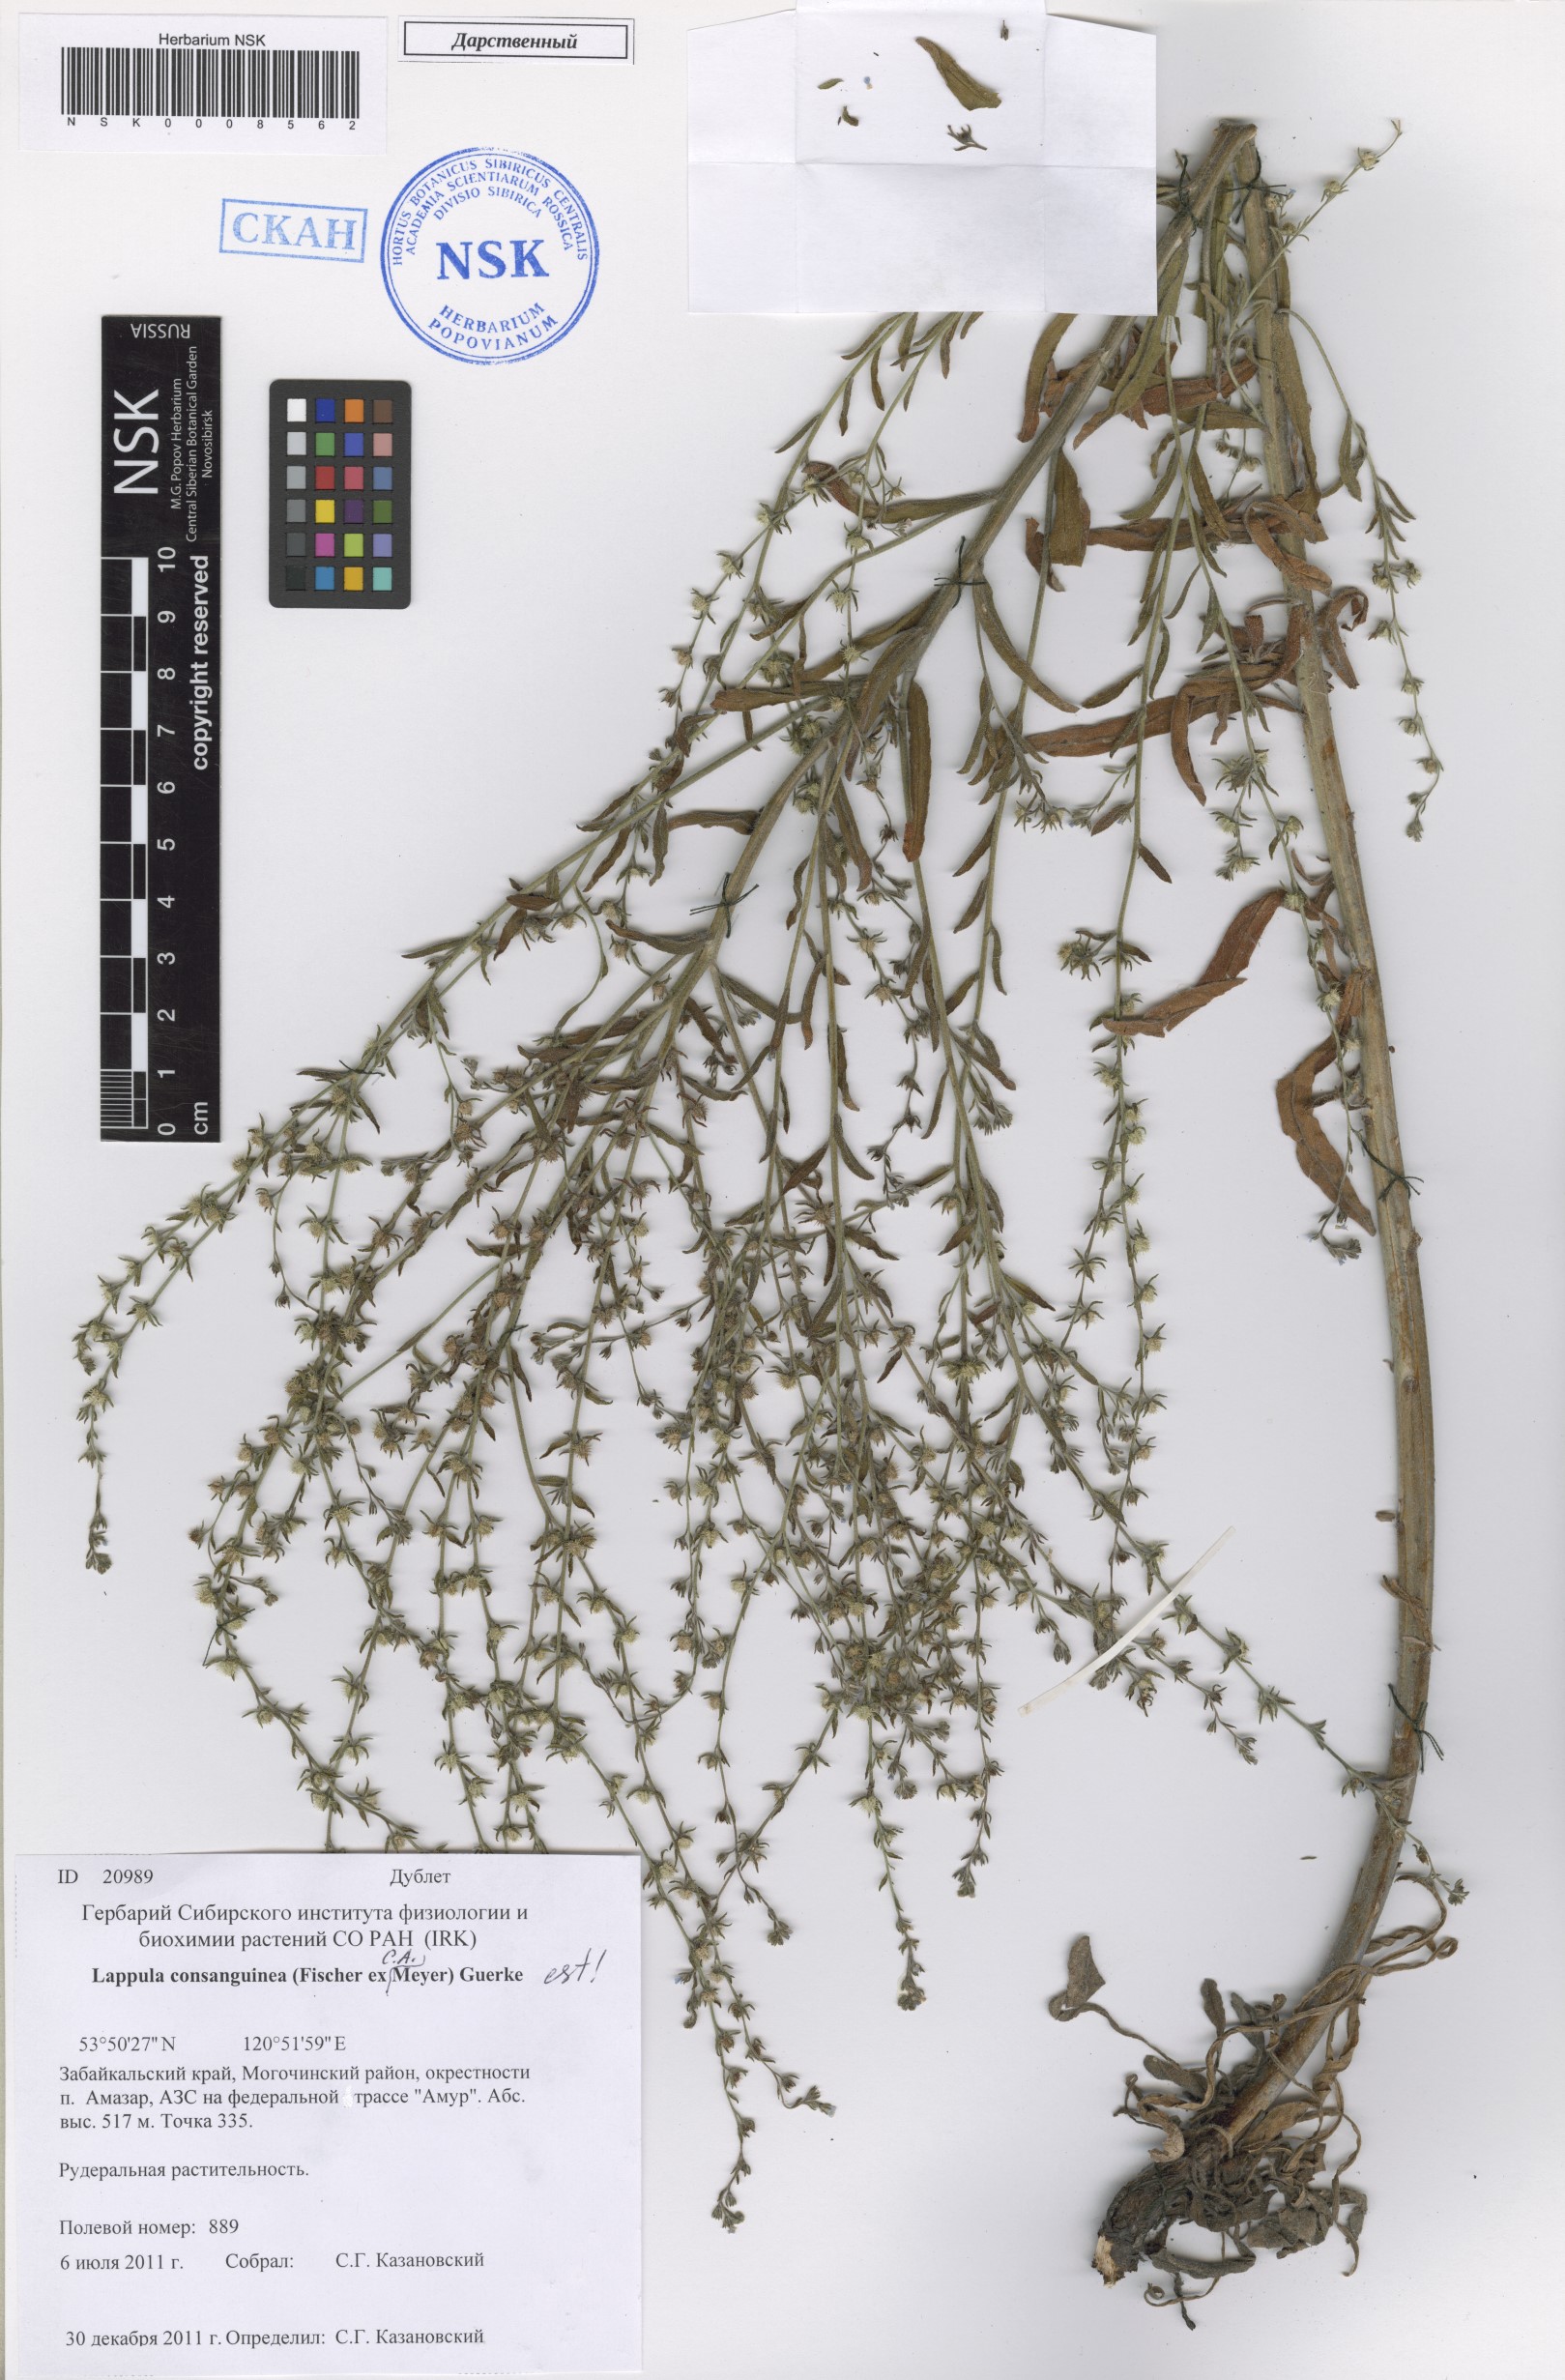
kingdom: Plantae
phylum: Tracheophyta
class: Magnoliopsida
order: Boraginales
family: Boraginaceae
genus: Lappula
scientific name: Lappula squarrosa
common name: European stickseed
